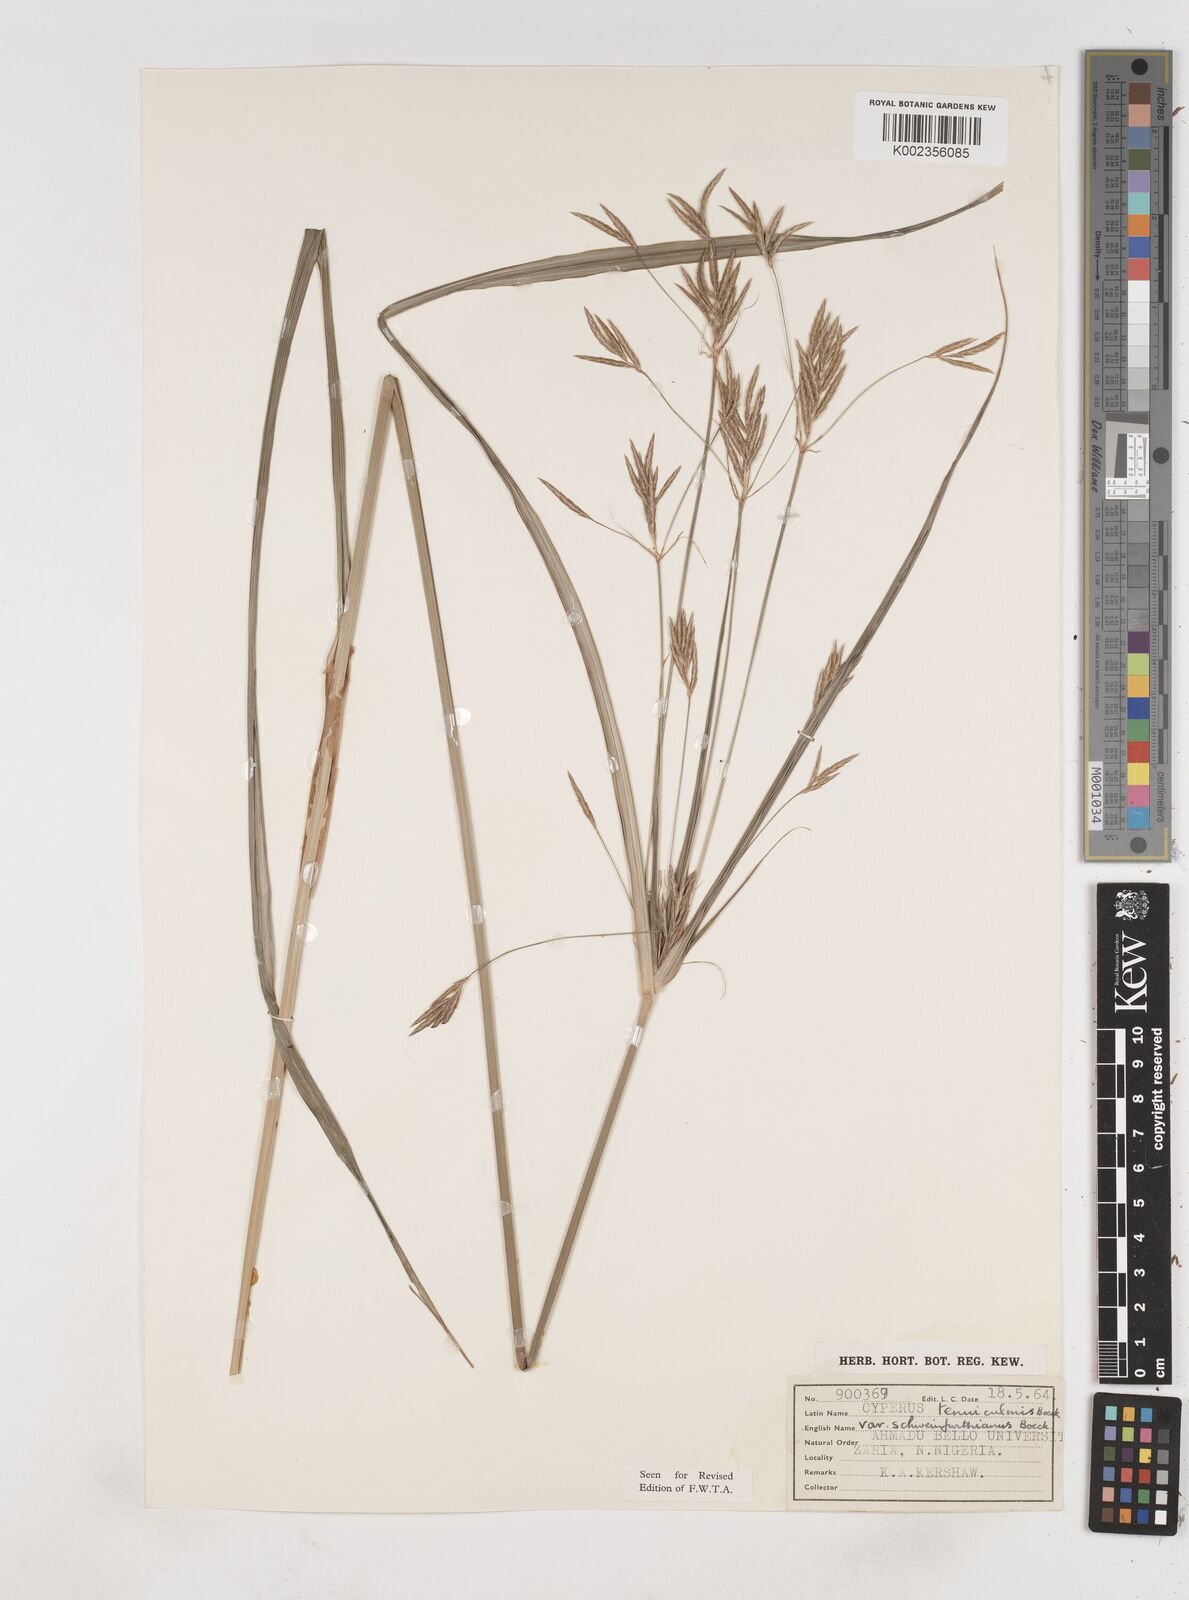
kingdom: Plantae
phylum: Tracheophyta
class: Liliopsida
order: Poales
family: Cyperaceae
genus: Cyperus
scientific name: Cyperus tenuiculmis
